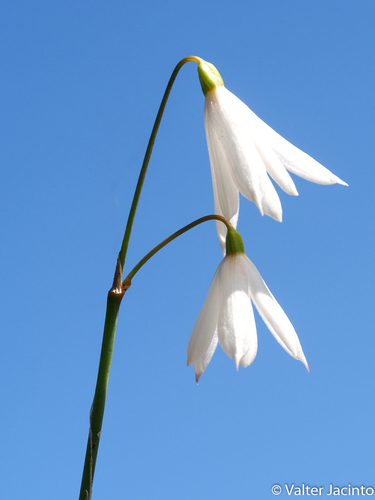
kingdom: Plantae
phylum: Tracheophyta
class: Liliopsida
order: Asparagales
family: Amaryllidaceae
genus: Acis
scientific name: Acis trichophylla
